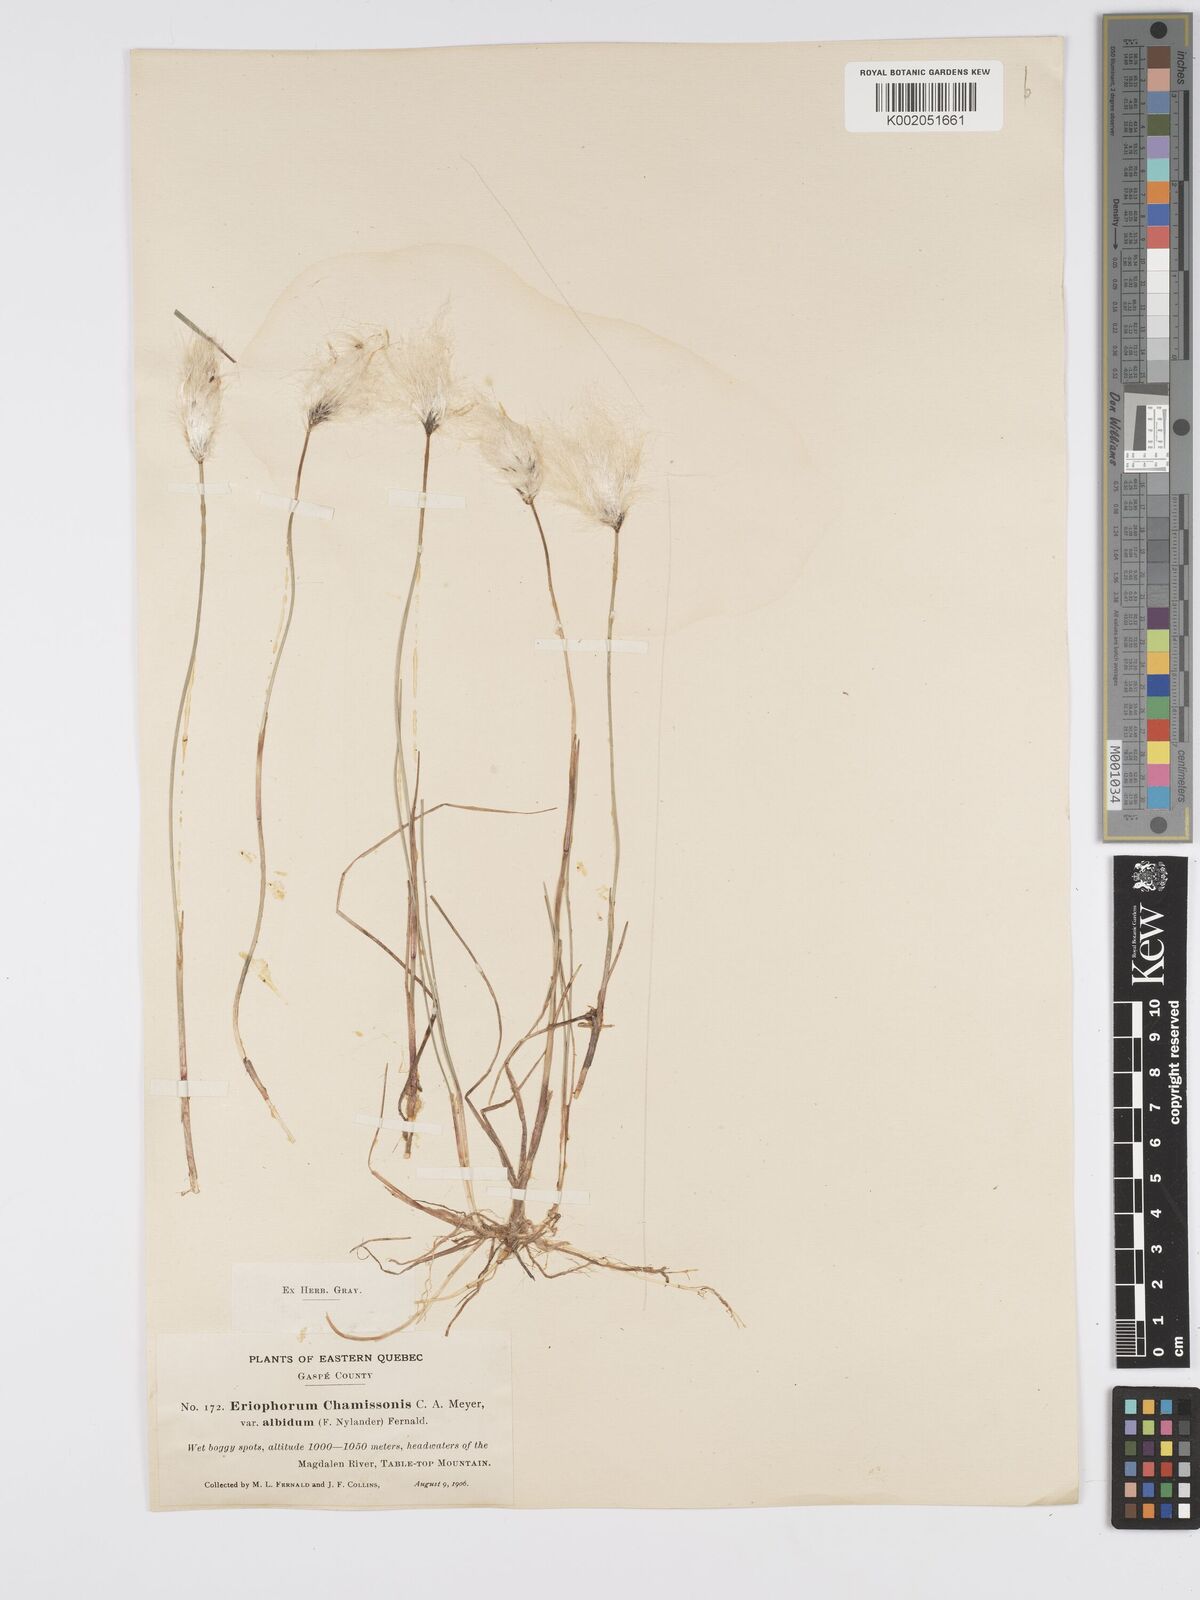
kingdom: Plantae
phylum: Tracheophyta
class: Liliopsida
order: Poales
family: Cyperaceae
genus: Eriophorum
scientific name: Eriophorum chamissonis
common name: Chamisso's cottongrass
